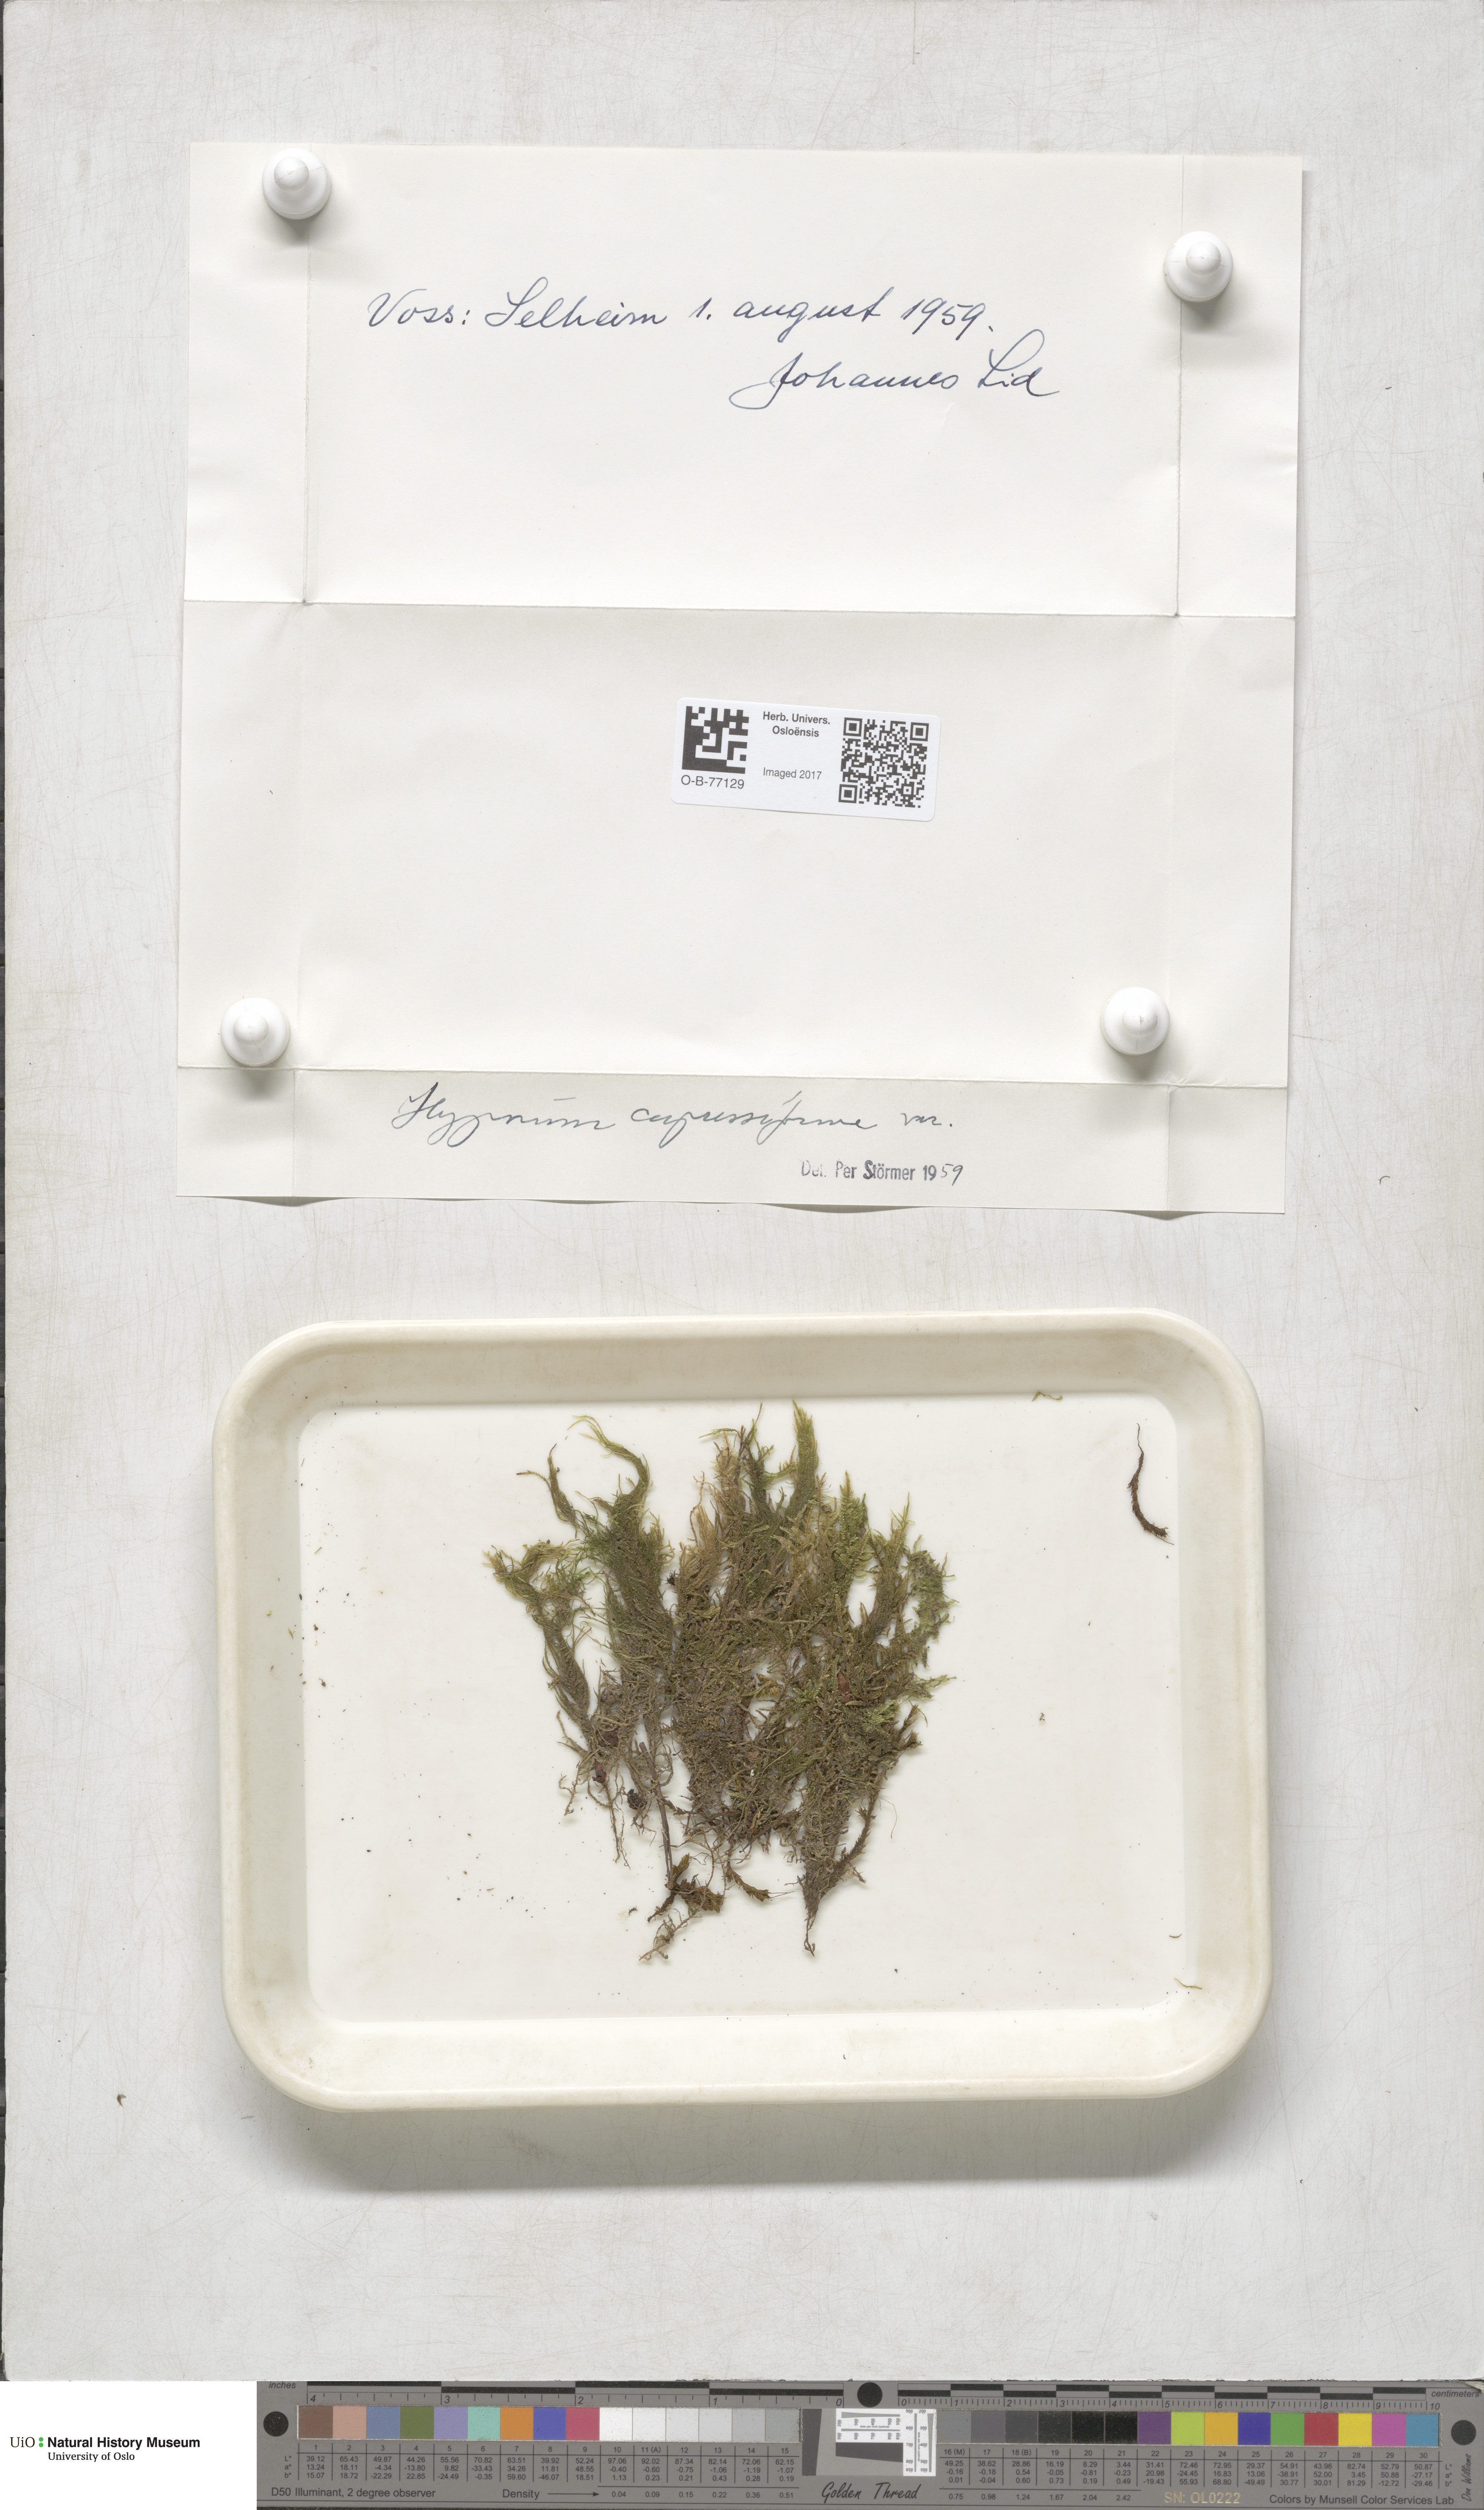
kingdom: Plantae
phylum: Bryophyta
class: Bryopsida
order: Hypnales
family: Hypnaceae
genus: Hypnum
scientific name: Hypnum cupressiforme
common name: Cypress-leaved plait-moss
